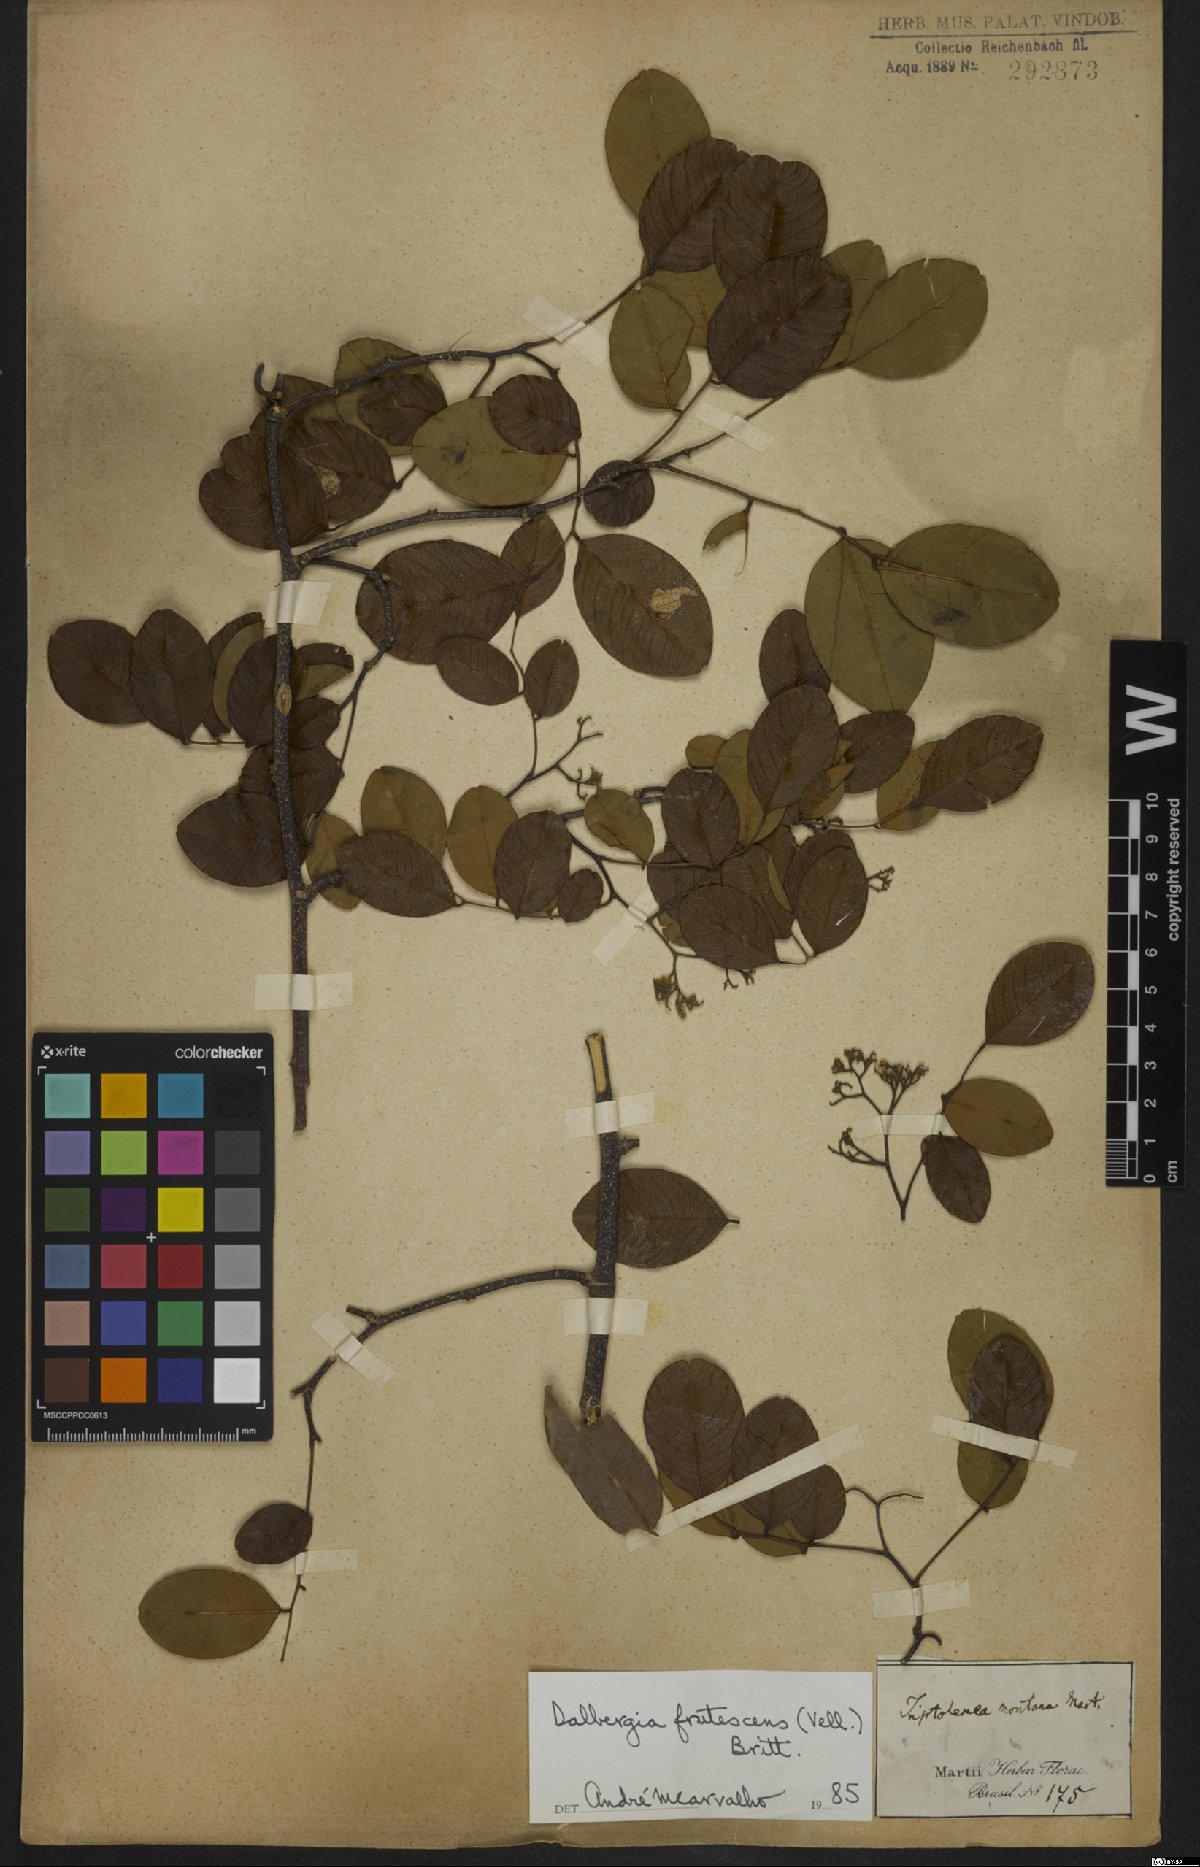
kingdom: Plantae
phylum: Tracheophyta
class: Magnoliopsida
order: Fabales
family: Fabaceae
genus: Dalbergia
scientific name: Dalbergia frutescens
